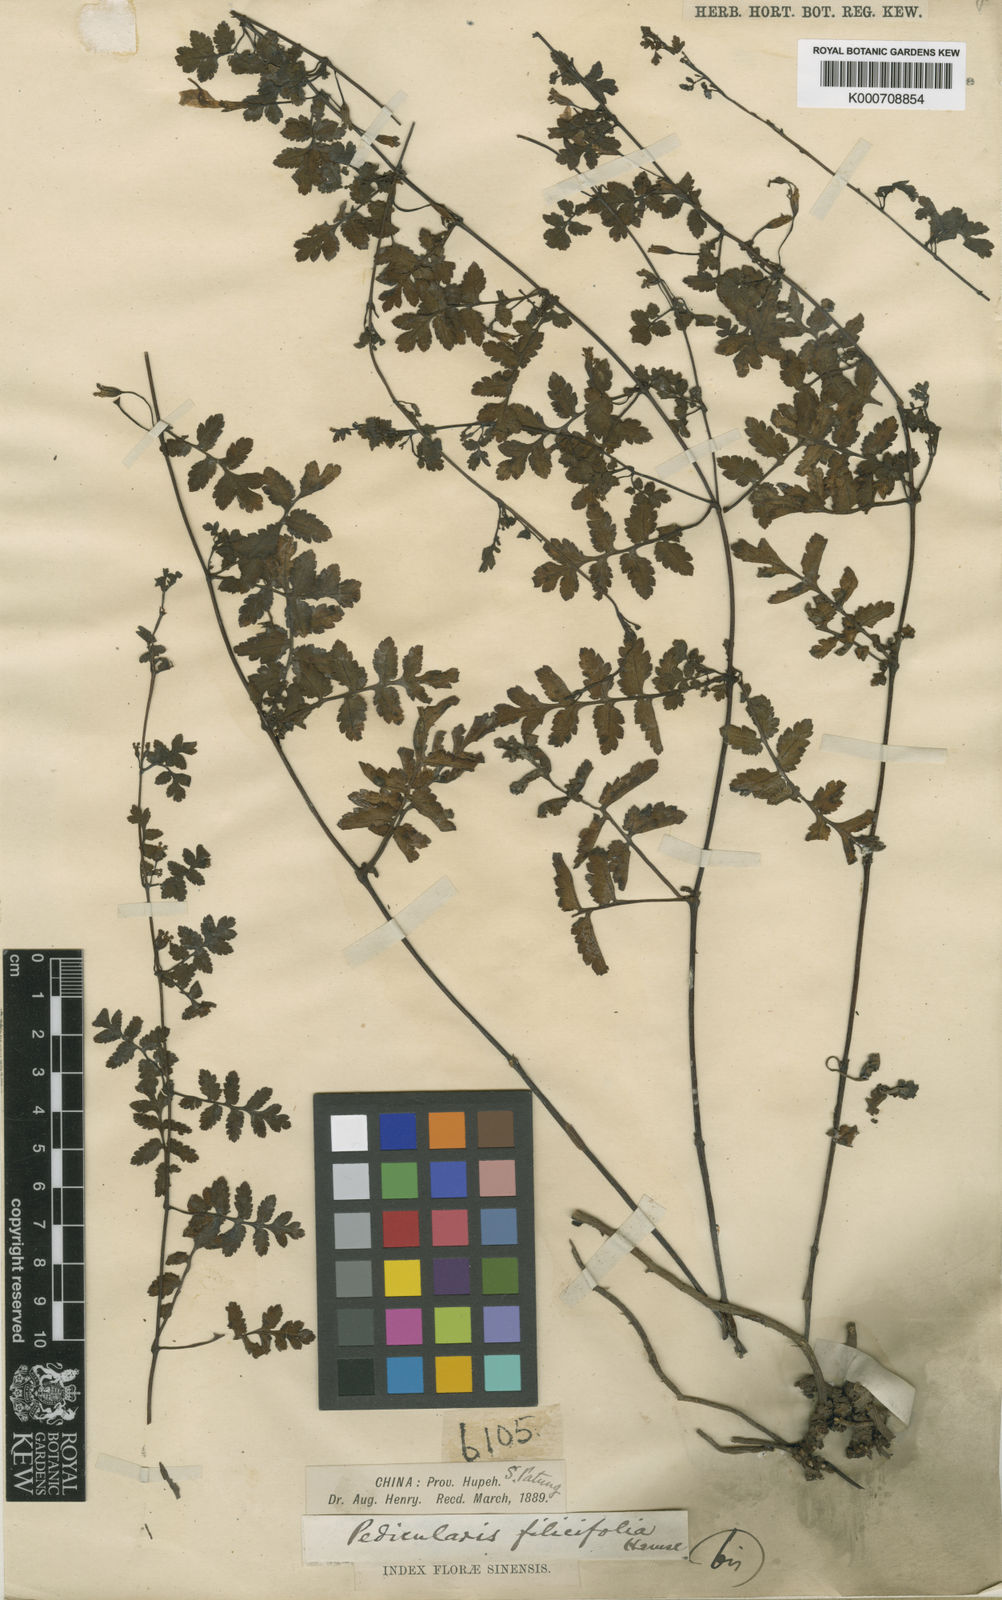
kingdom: Plantae
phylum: Tracheophyta
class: Magnoliopsida
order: Lamiales
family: Orobanchaceae
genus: Pedicularis
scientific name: Pedicularis filicifolia
